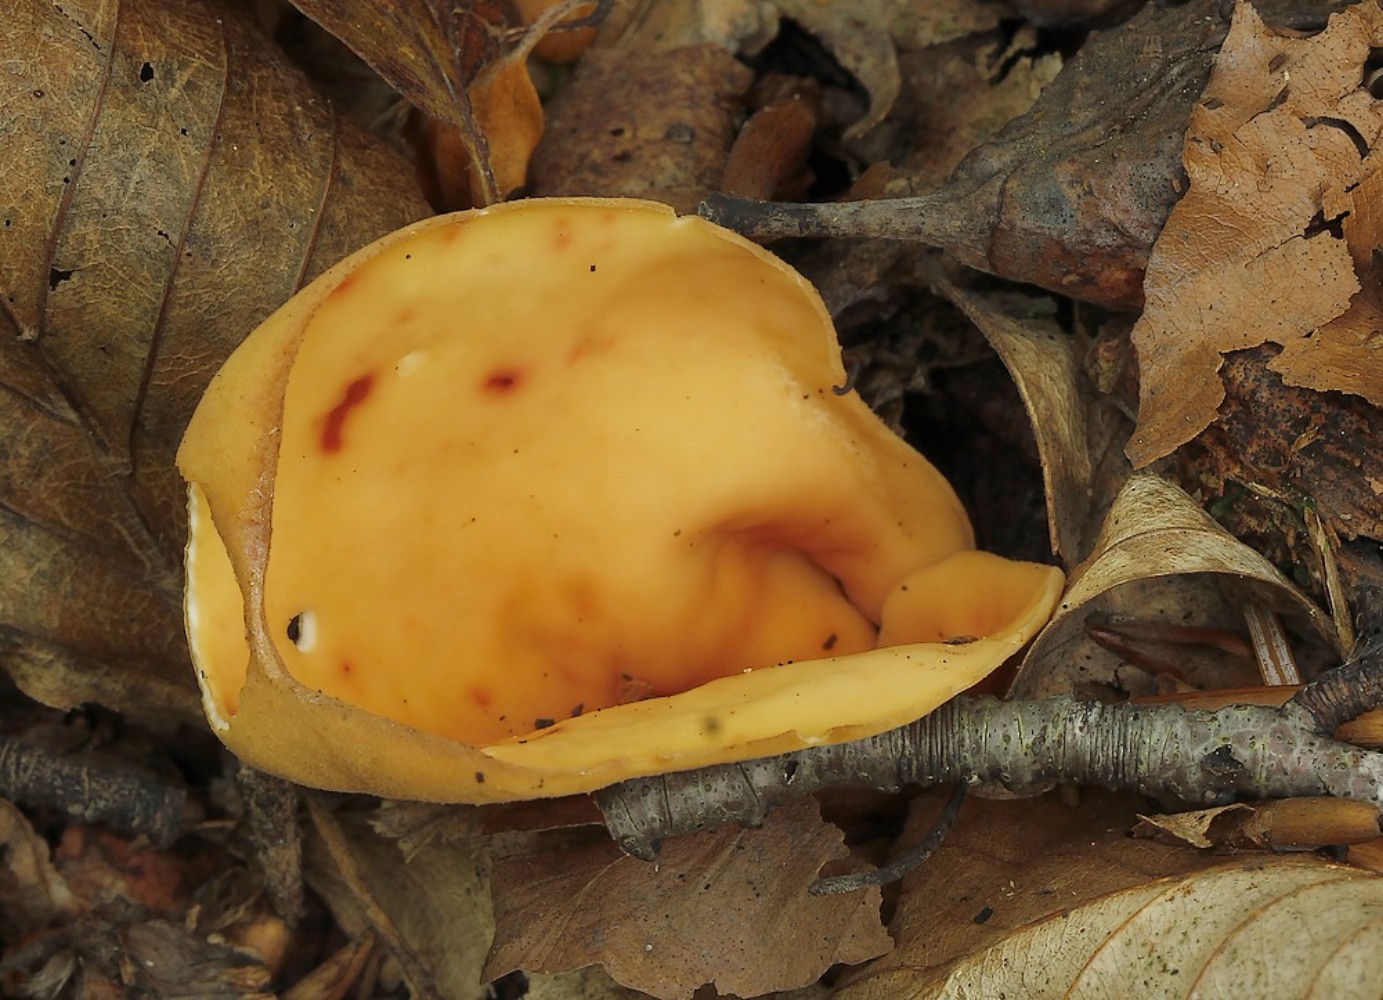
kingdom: Fungi
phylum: Ascomycota
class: Pezizomycetes
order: Pezizales
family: Otideaceae
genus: Otidea
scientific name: Otidea onotica
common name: æsel-ørebæger
